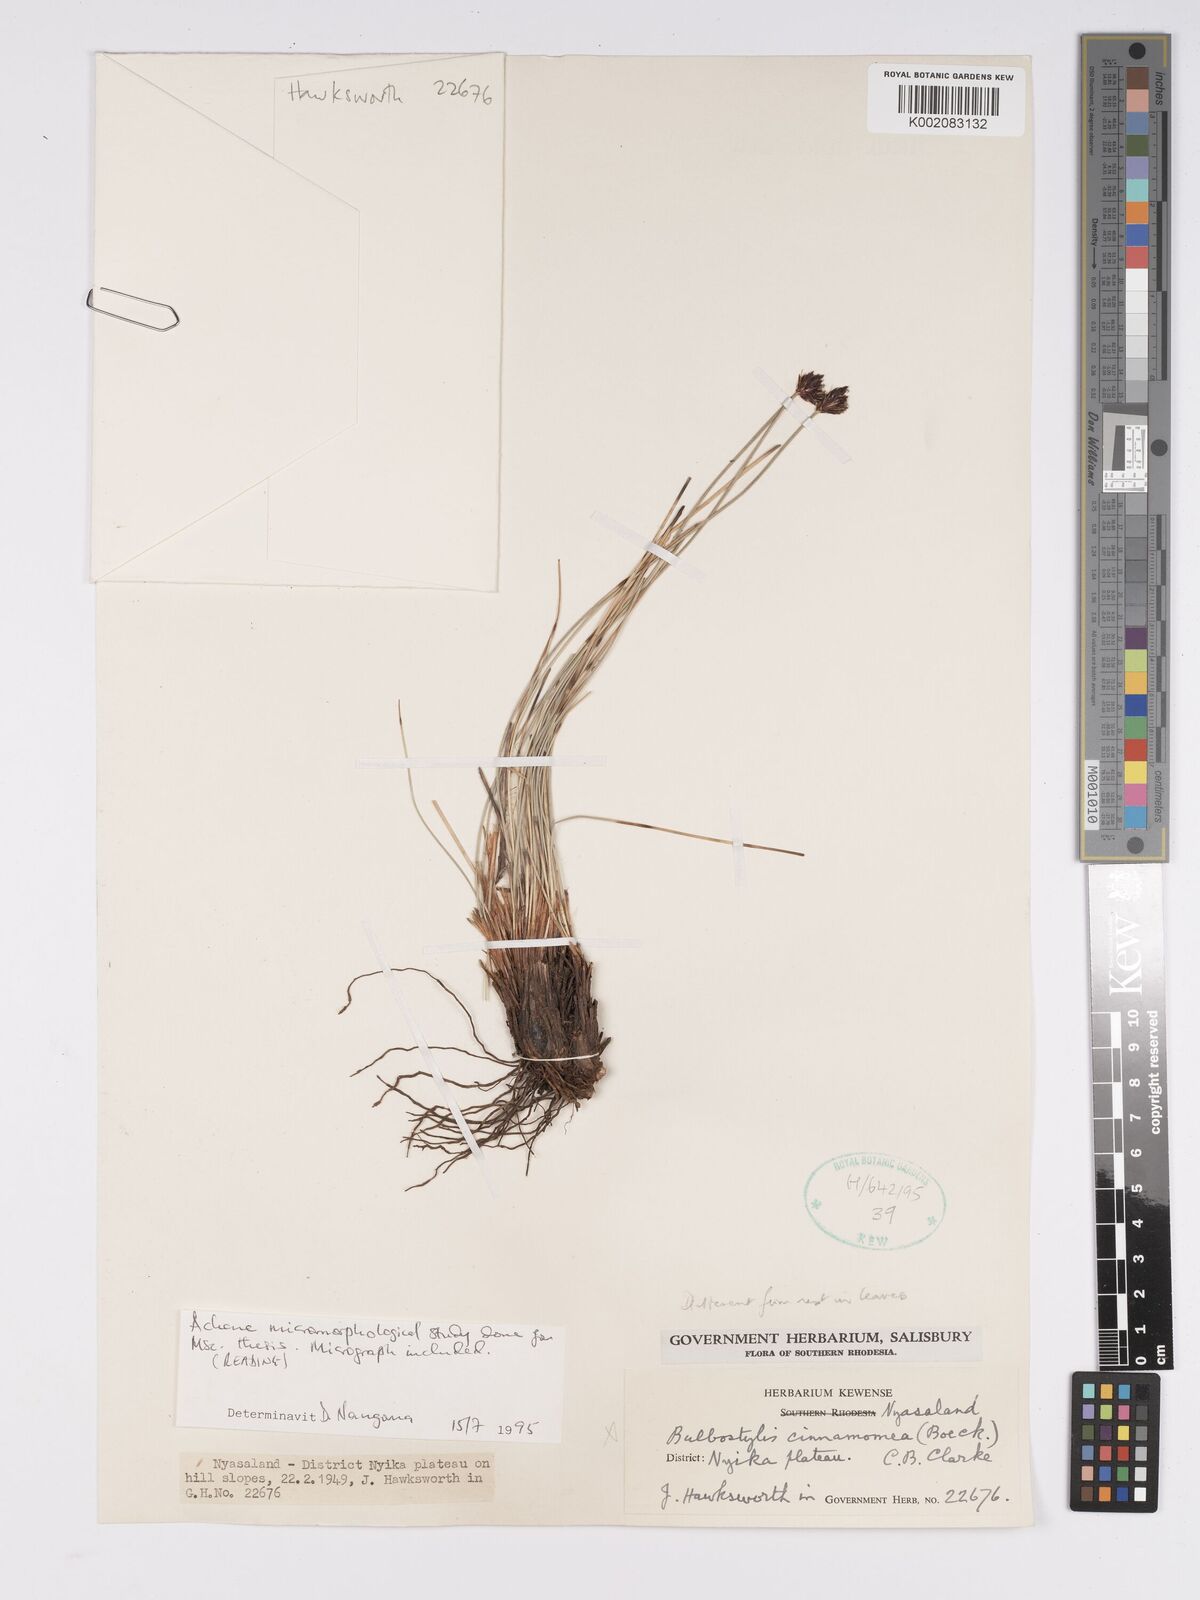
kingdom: Plantae
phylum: Tracheophyta
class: Liliopsida
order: Poales
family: Cyperaceae
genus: Bulbostylis
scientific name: Bulbostylis schoenoides
